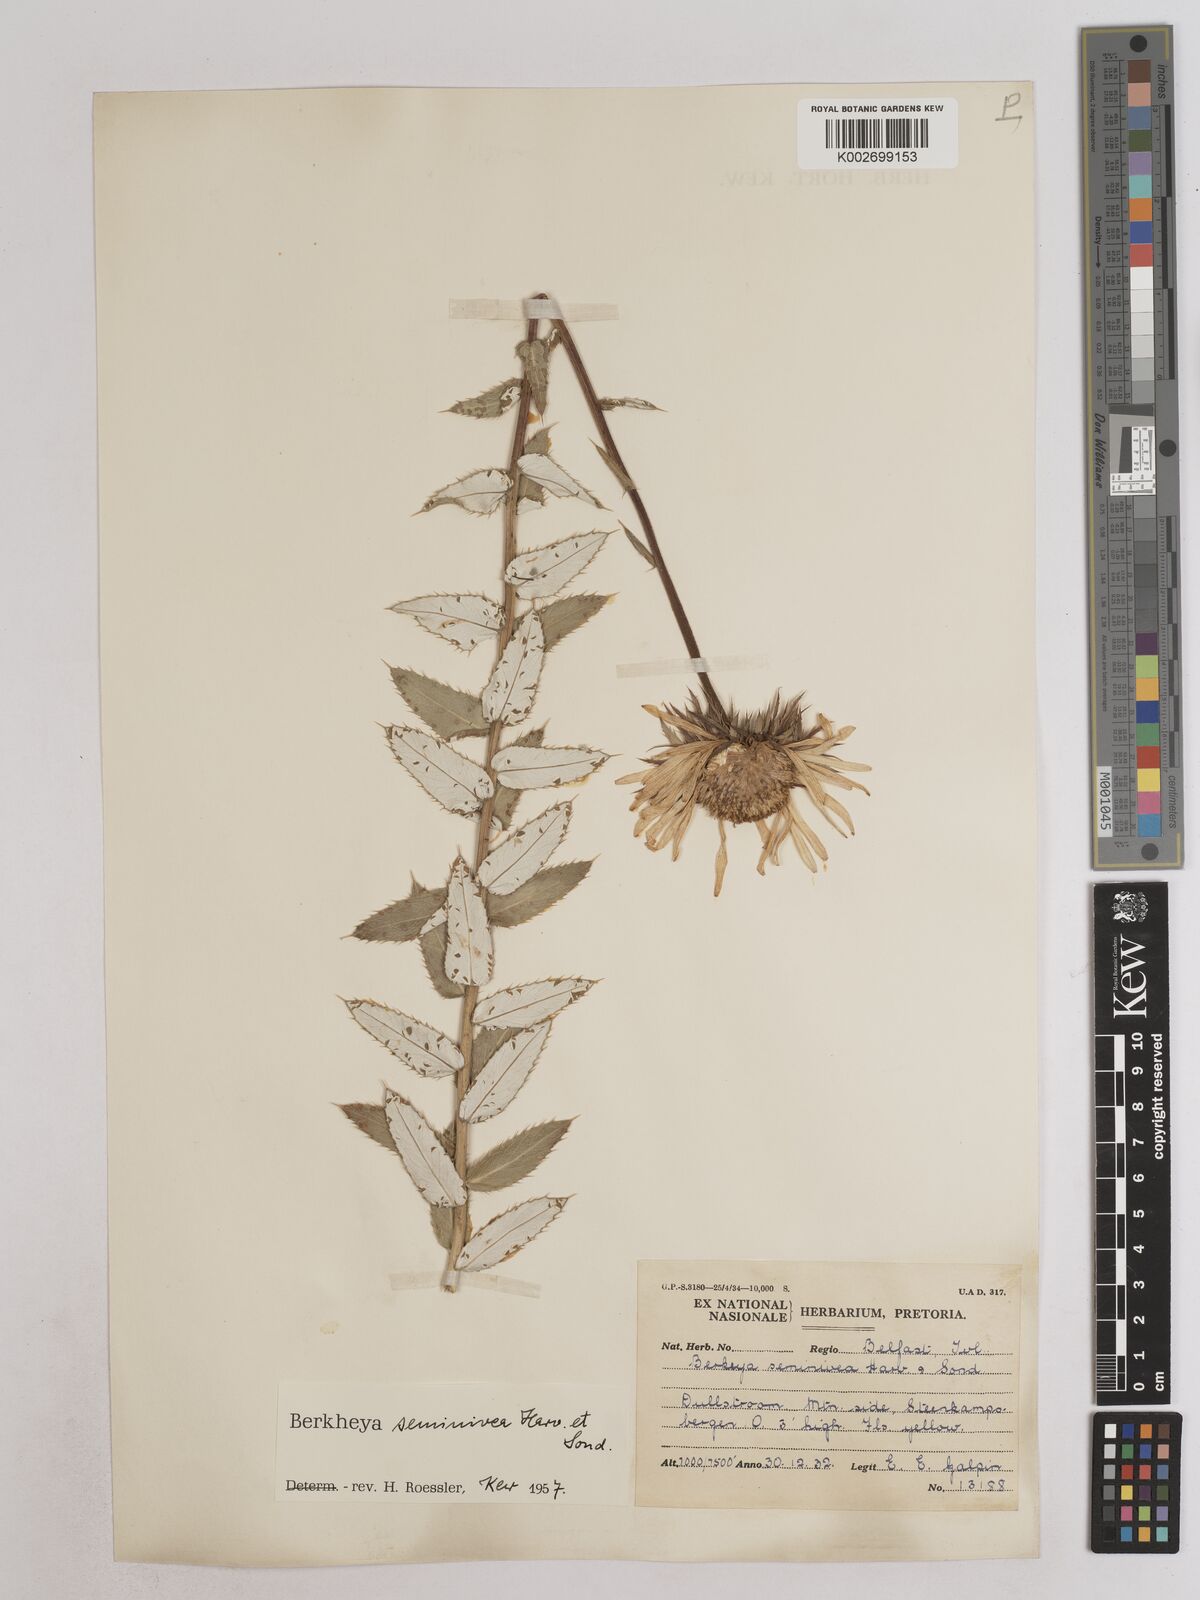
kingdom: Plantae
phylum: Tracheophyta
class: Magnoliopsida
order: Asterales
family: Asteraceae
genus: Berkheya
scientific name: Berkheya seminivea
